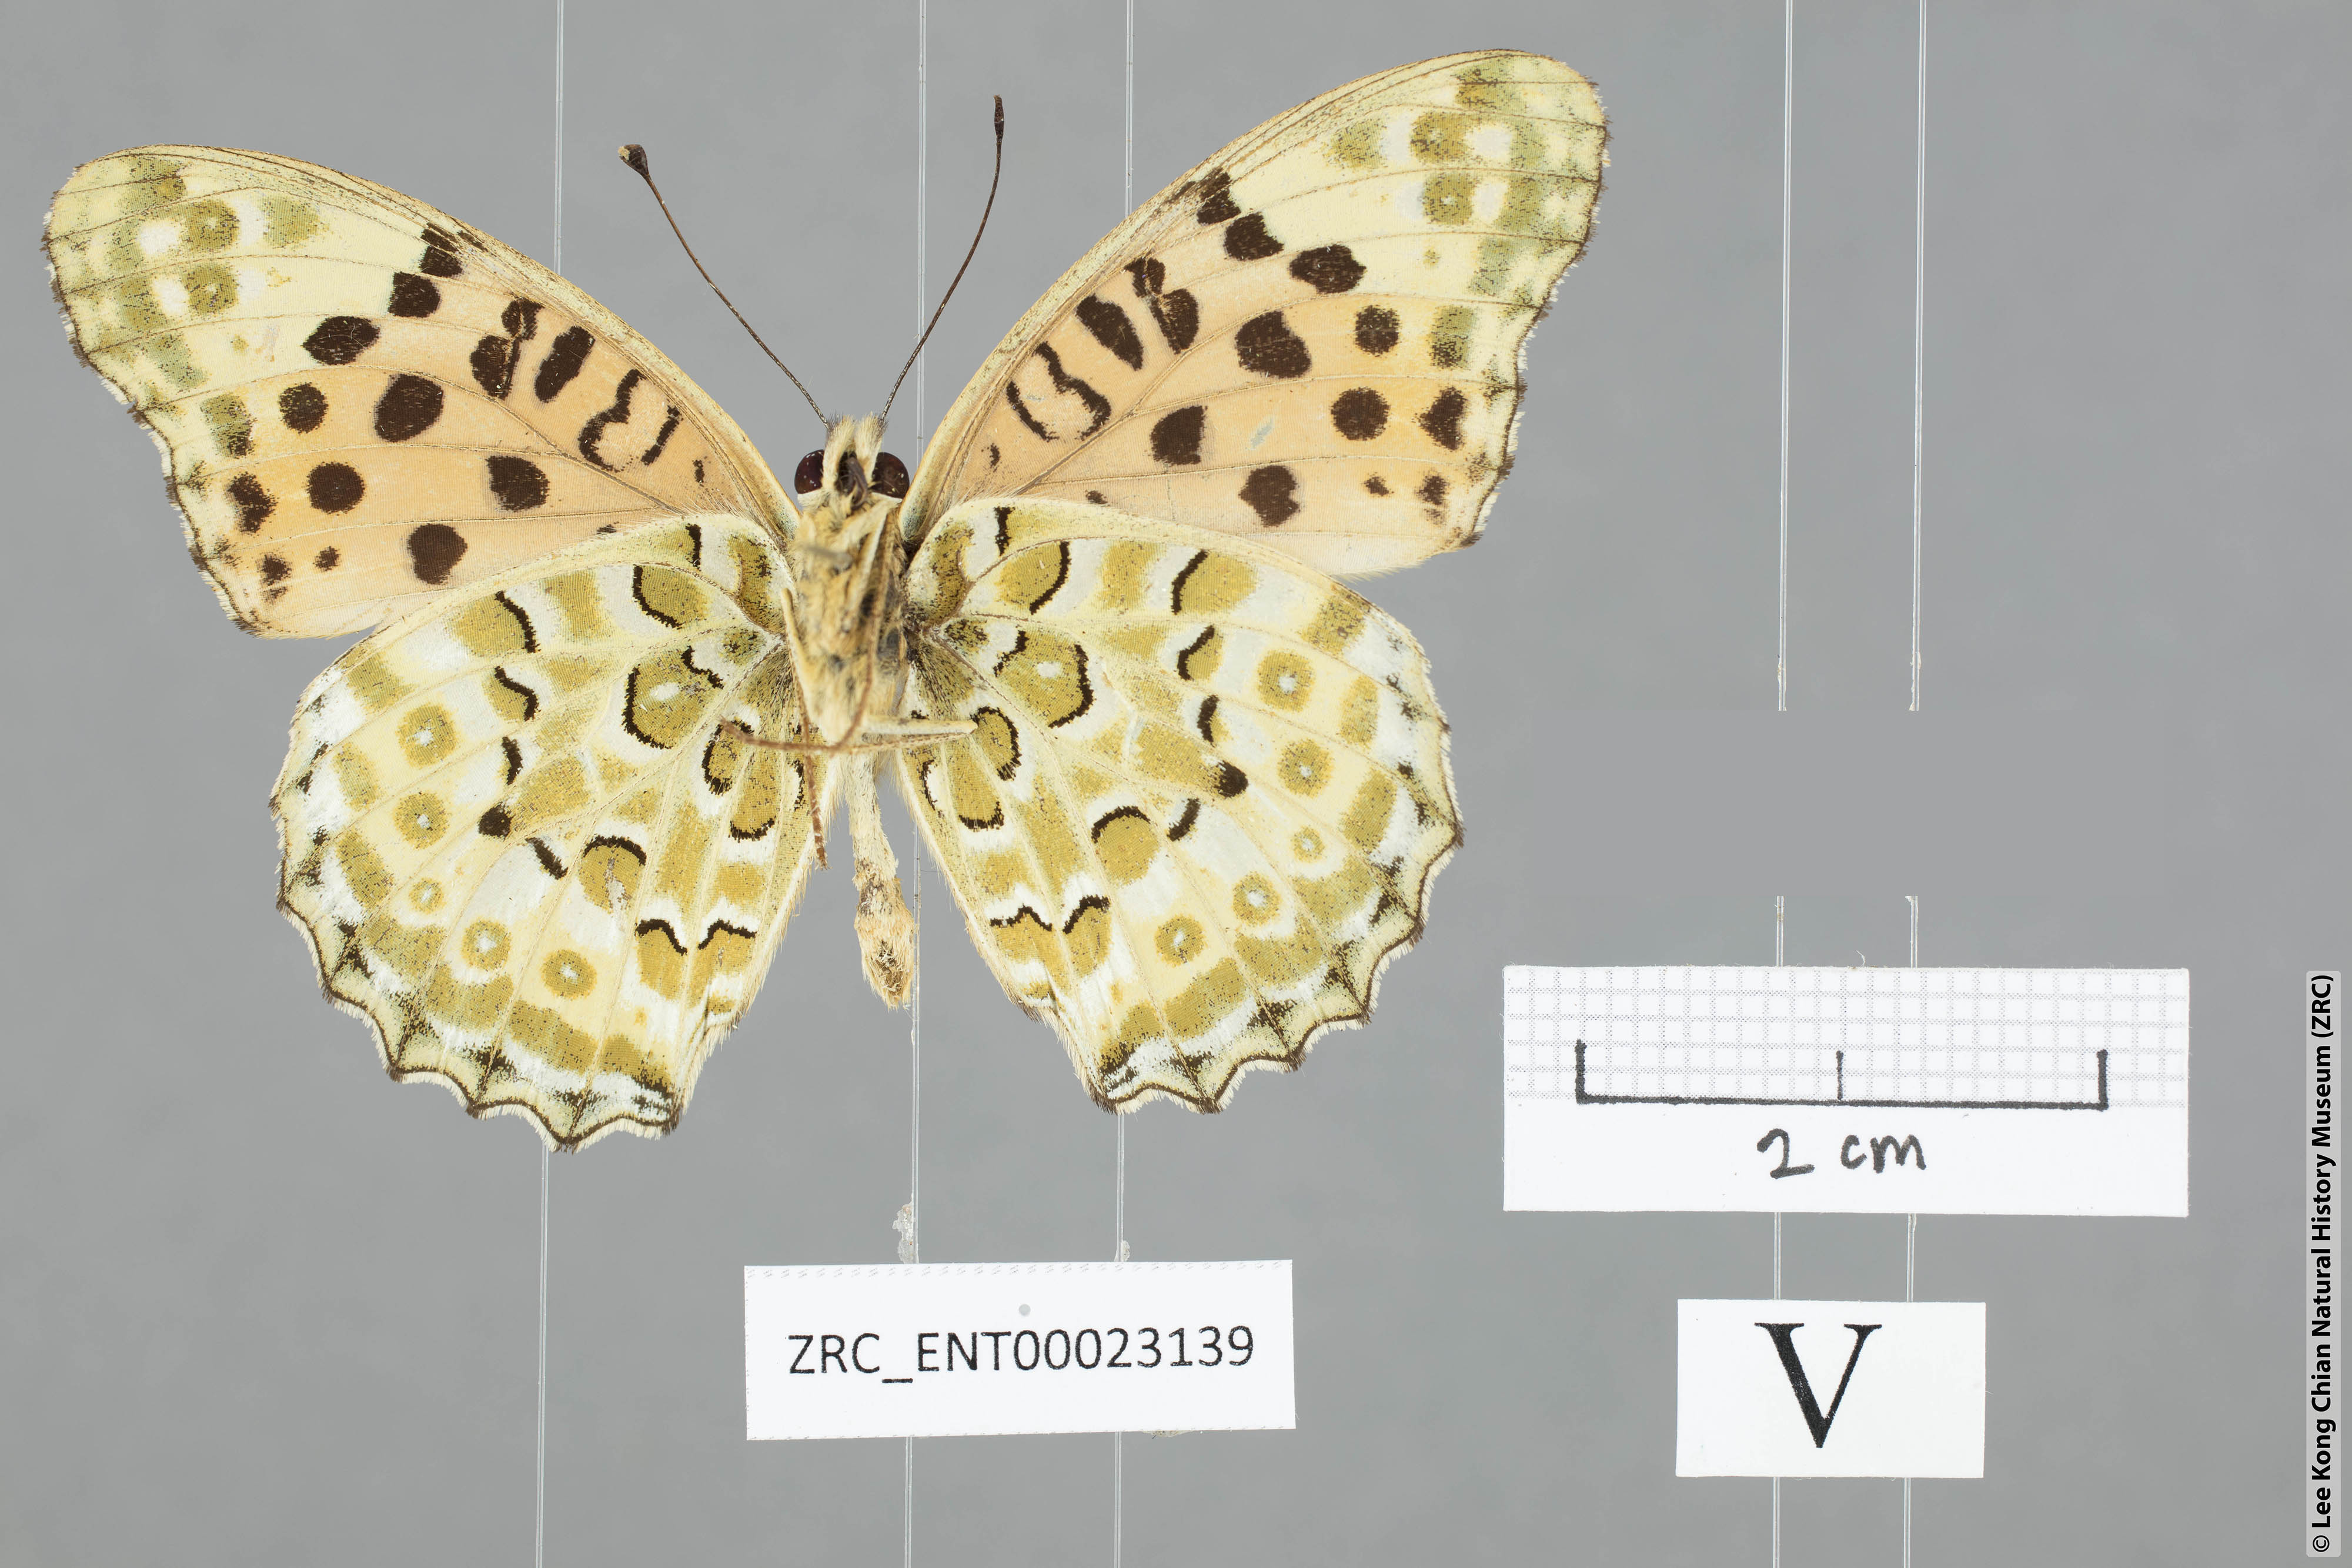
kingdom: Animalia
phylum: Arthropoda
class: Insecta
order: Lepidoptera
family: Nymphalidae
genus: Argyreus
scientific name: Argyreus hyperbius
